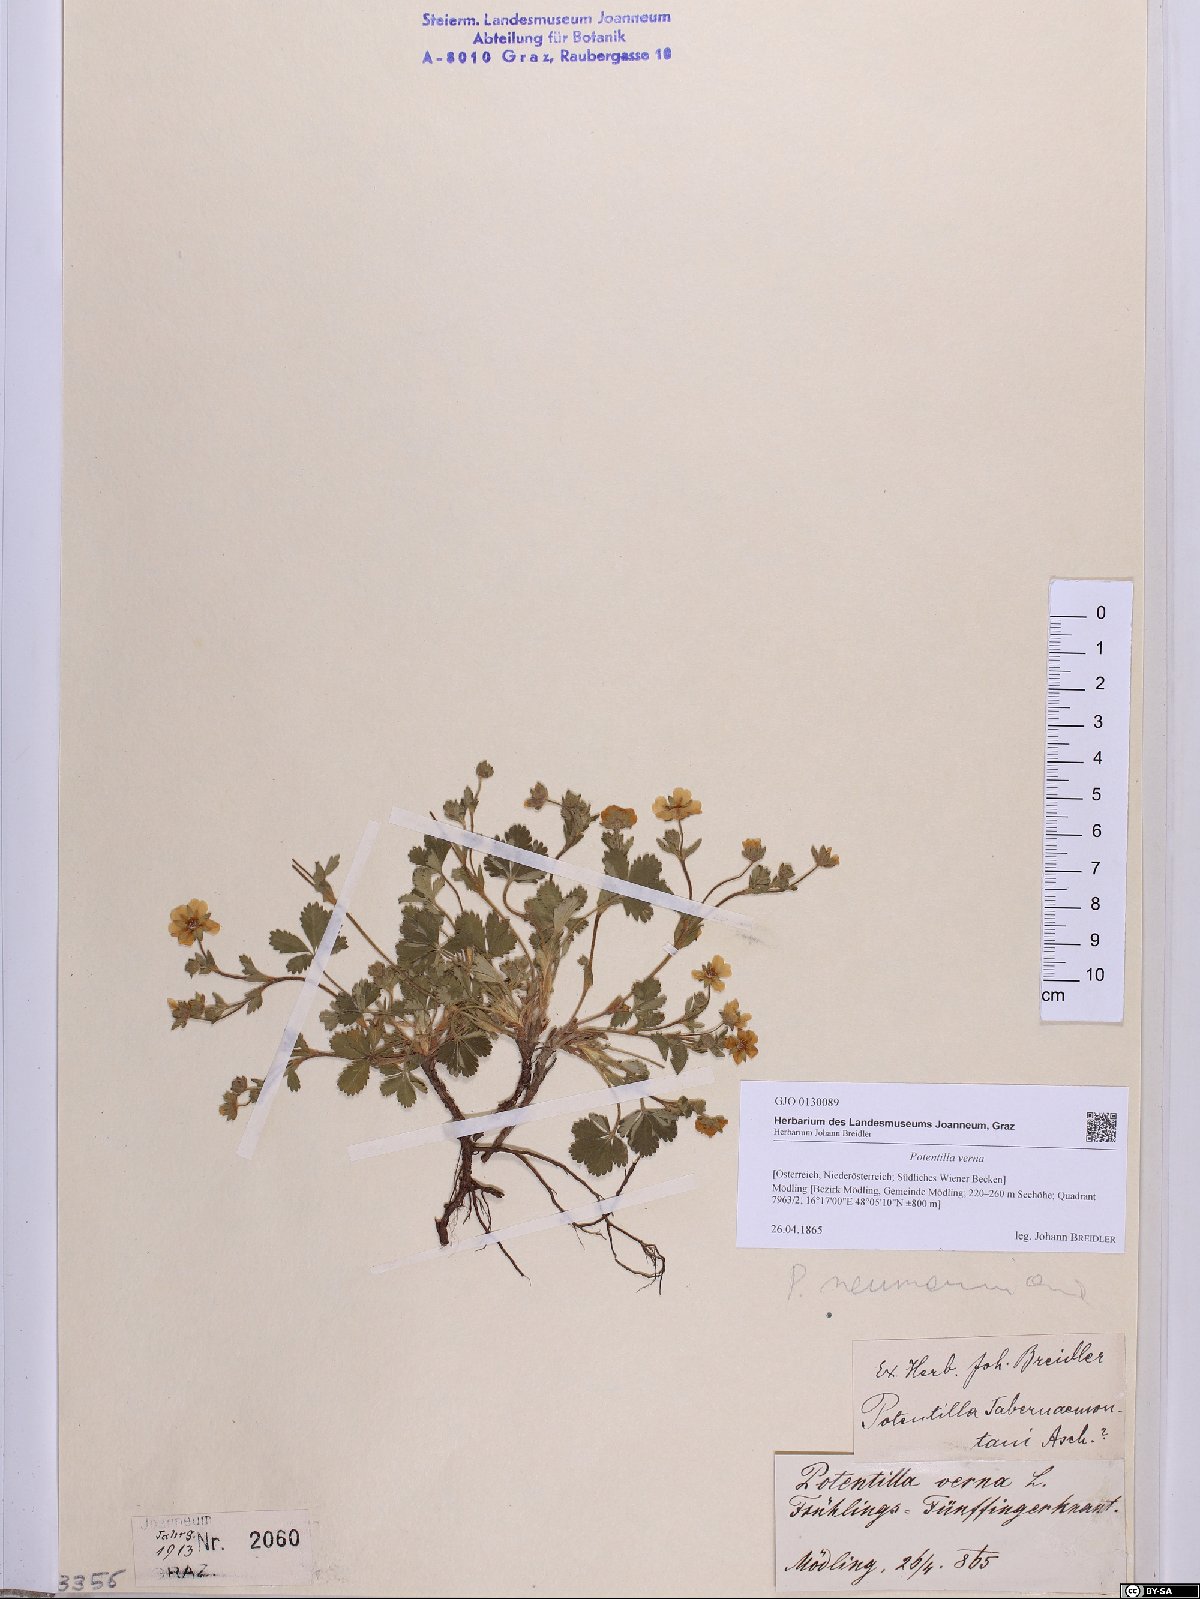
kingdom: Plantae
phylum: Tracheophyta
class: Magnoliopsida
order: Rosales
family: Rosaceae
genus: Potentilla
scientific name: Potentilla verna
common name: Spring cinquefoil
